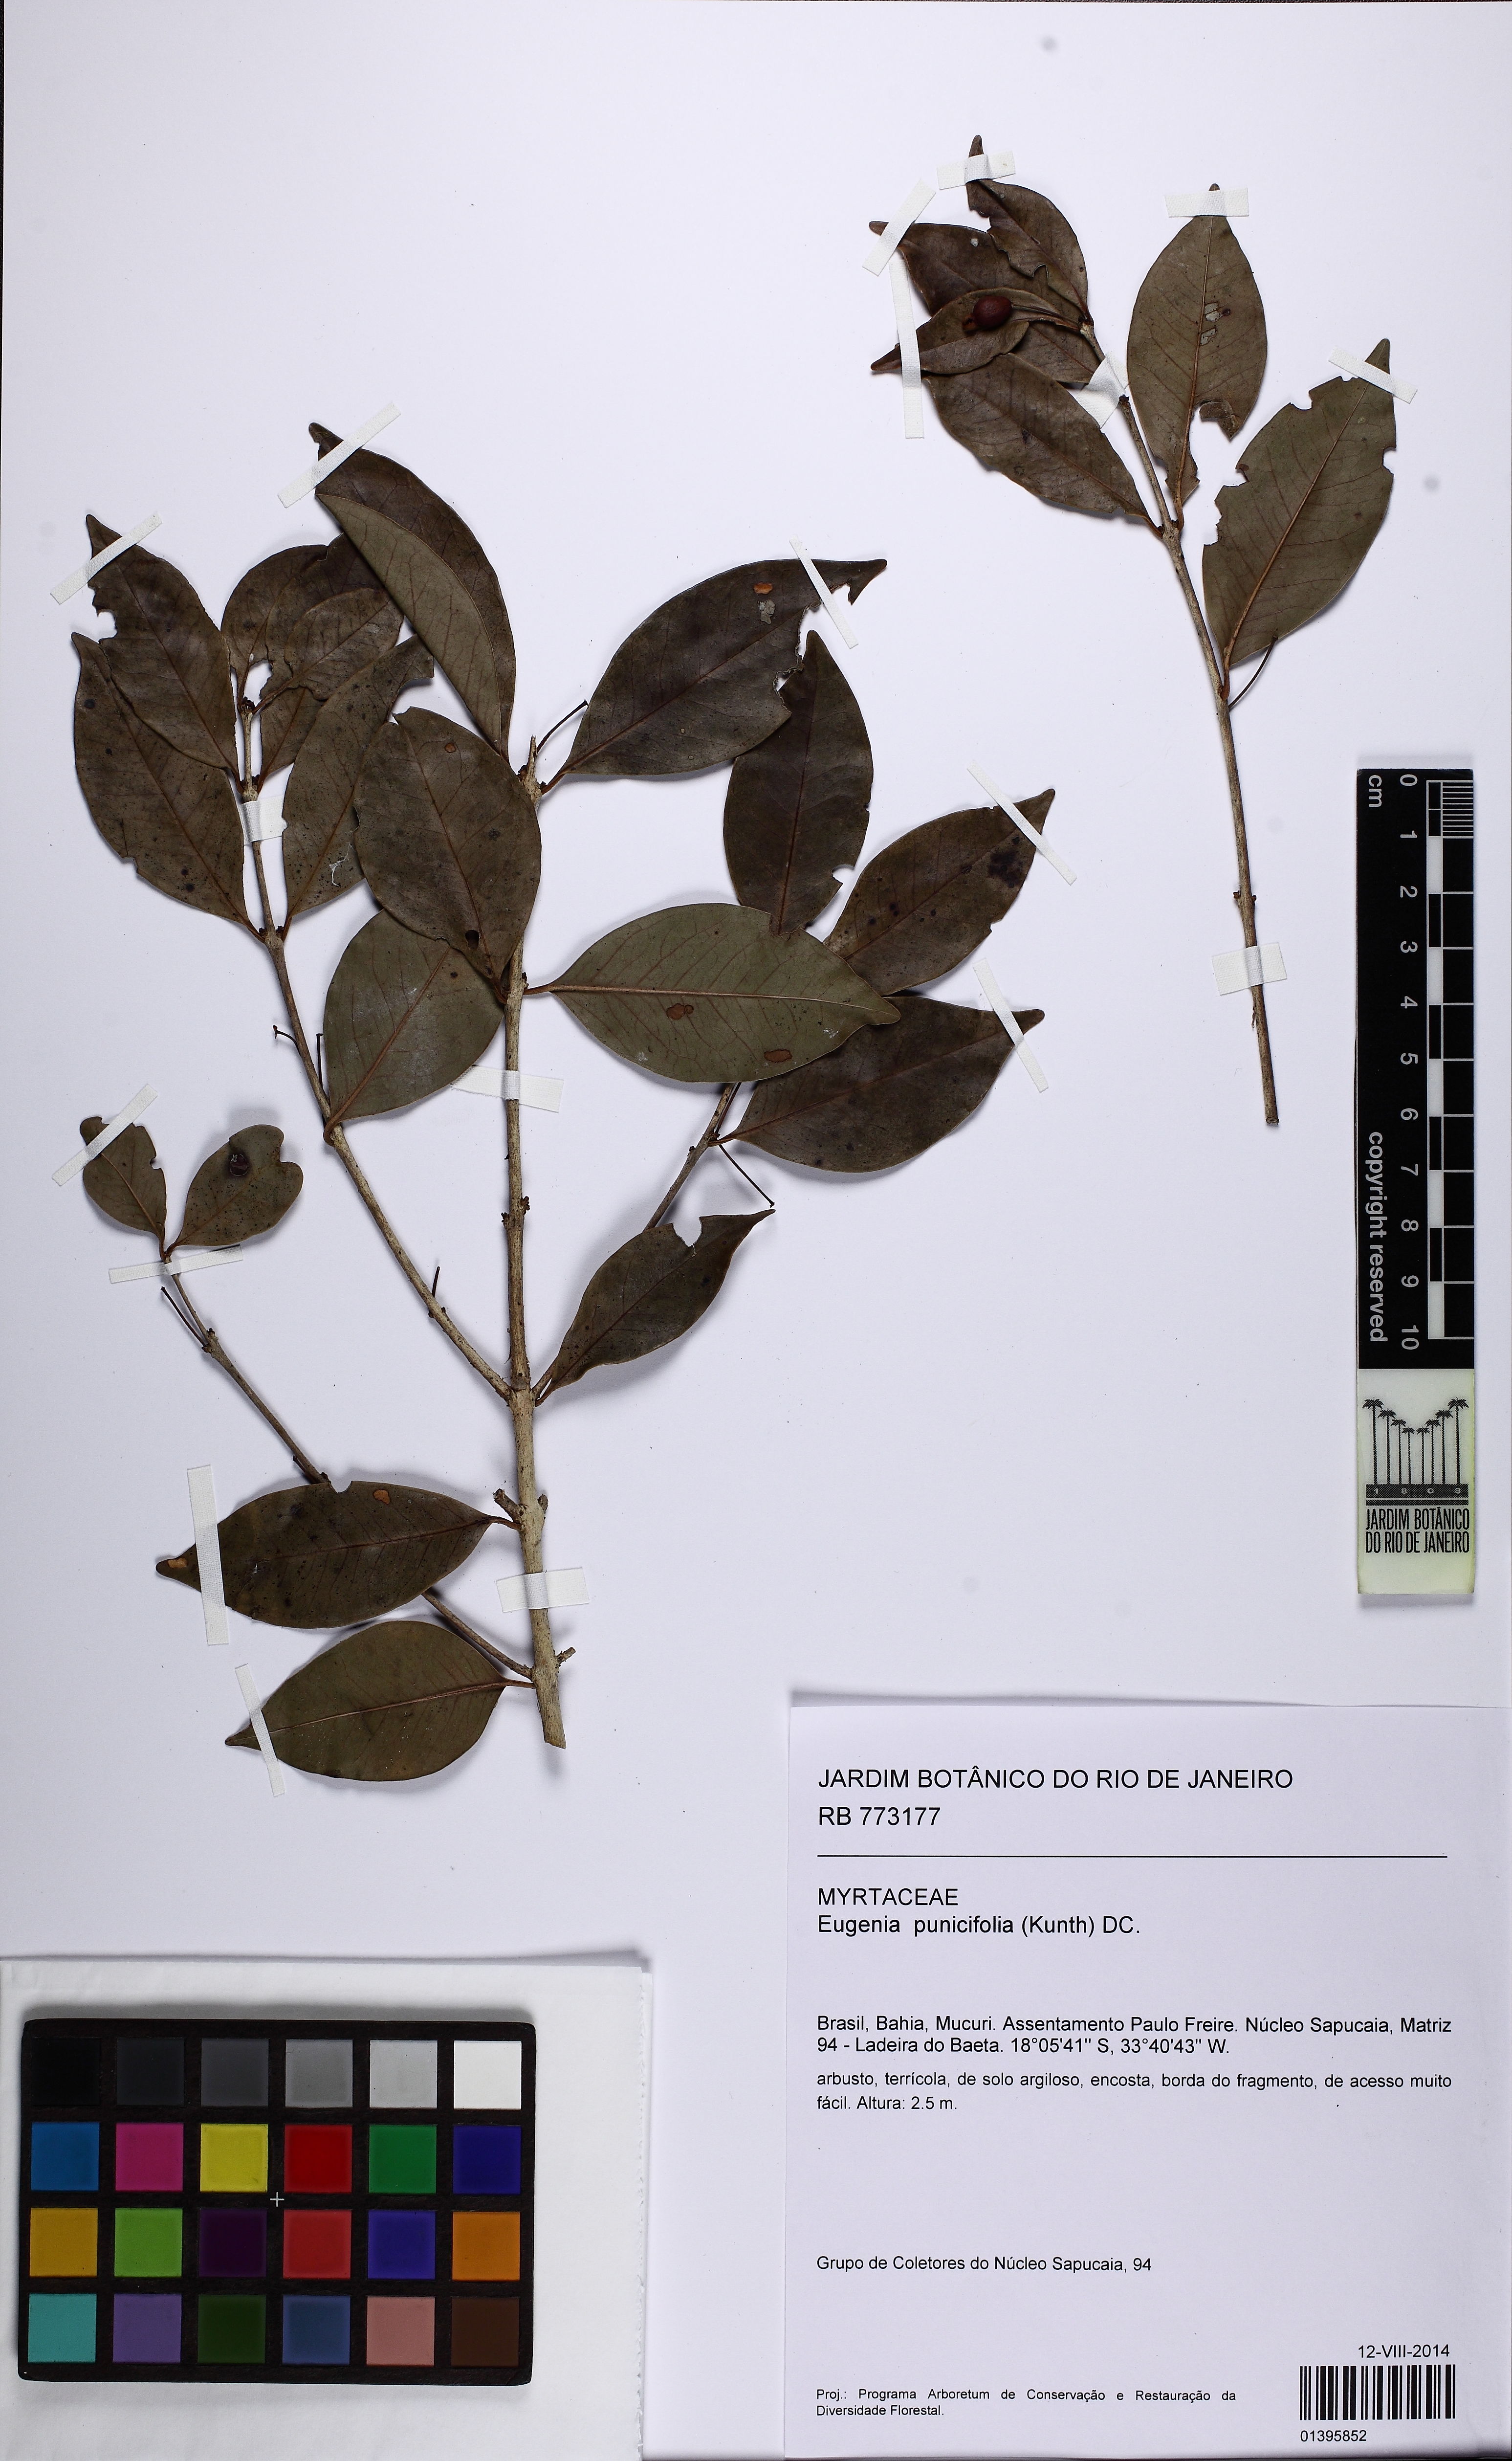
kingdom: Plantae
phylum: Tracheophyta
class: Magnoliopsida
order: Myrtales
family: Myrtaceae
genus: Eugenia
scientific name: Eugenia punicifolia
